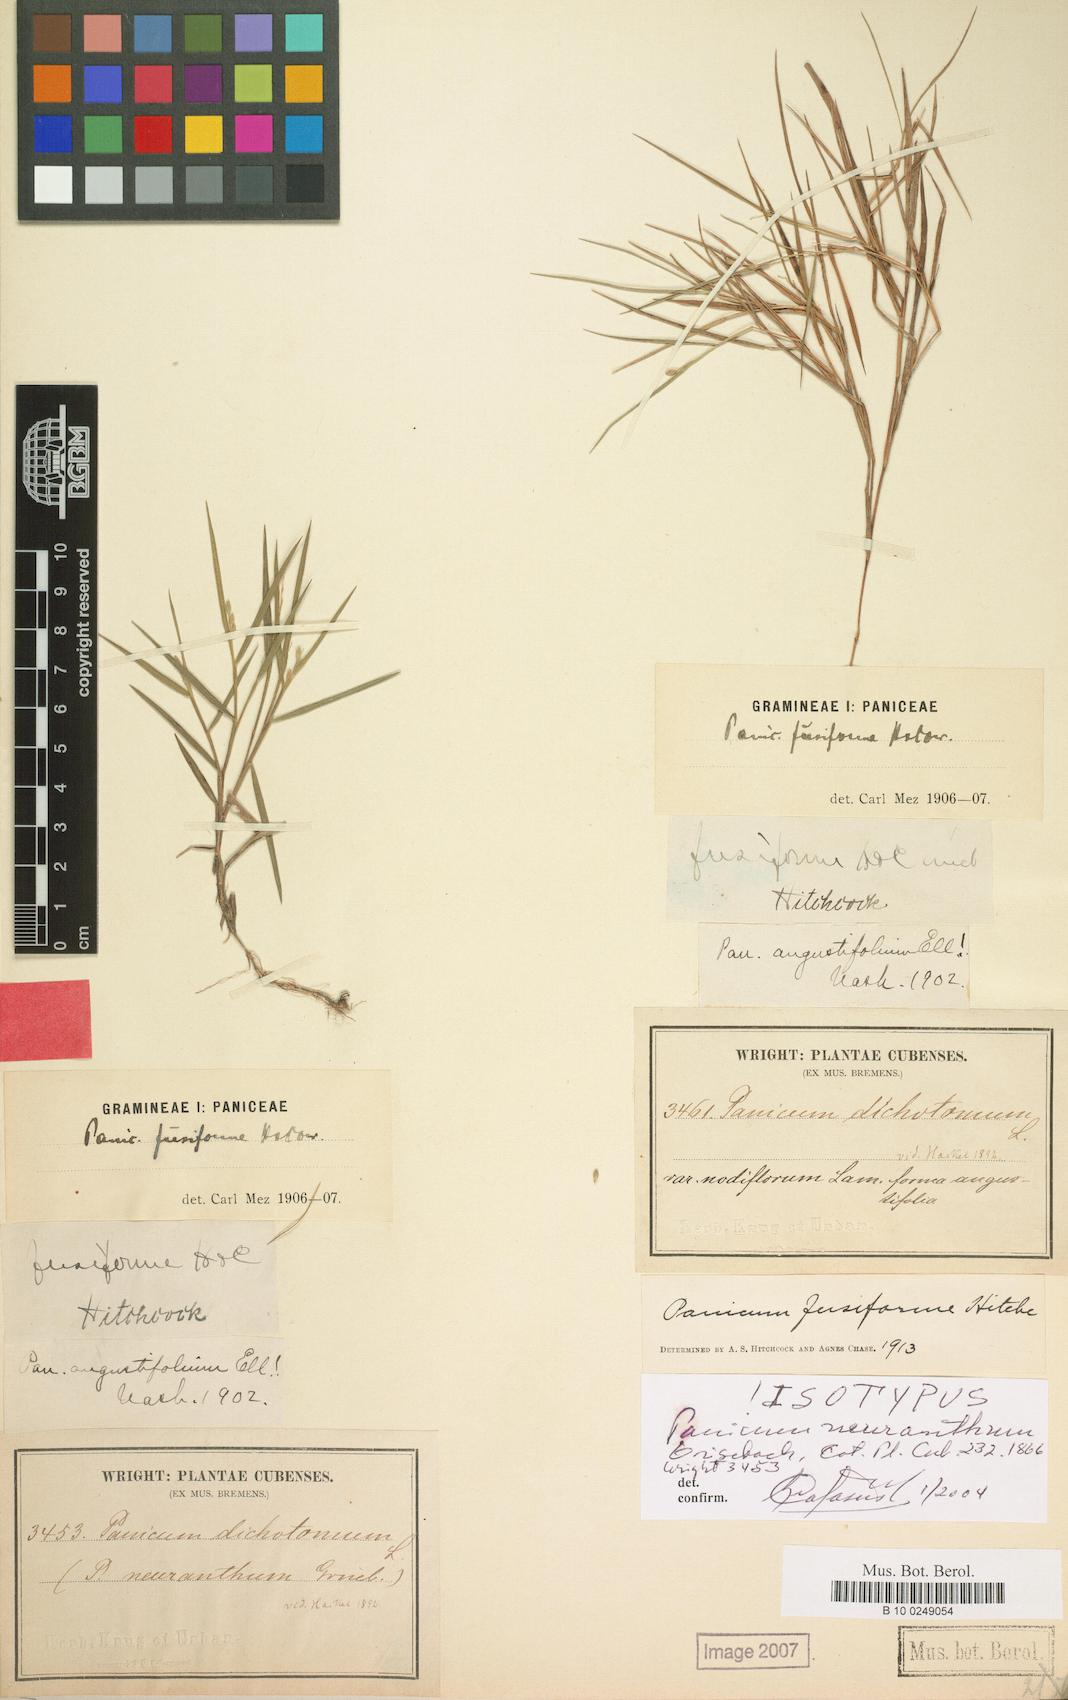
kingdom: Plantae
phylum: Tracheophyta
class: Liliopsida
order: Poales
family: Poaceae
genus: Dichanthelium
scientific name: Dichanthelium aciculare
